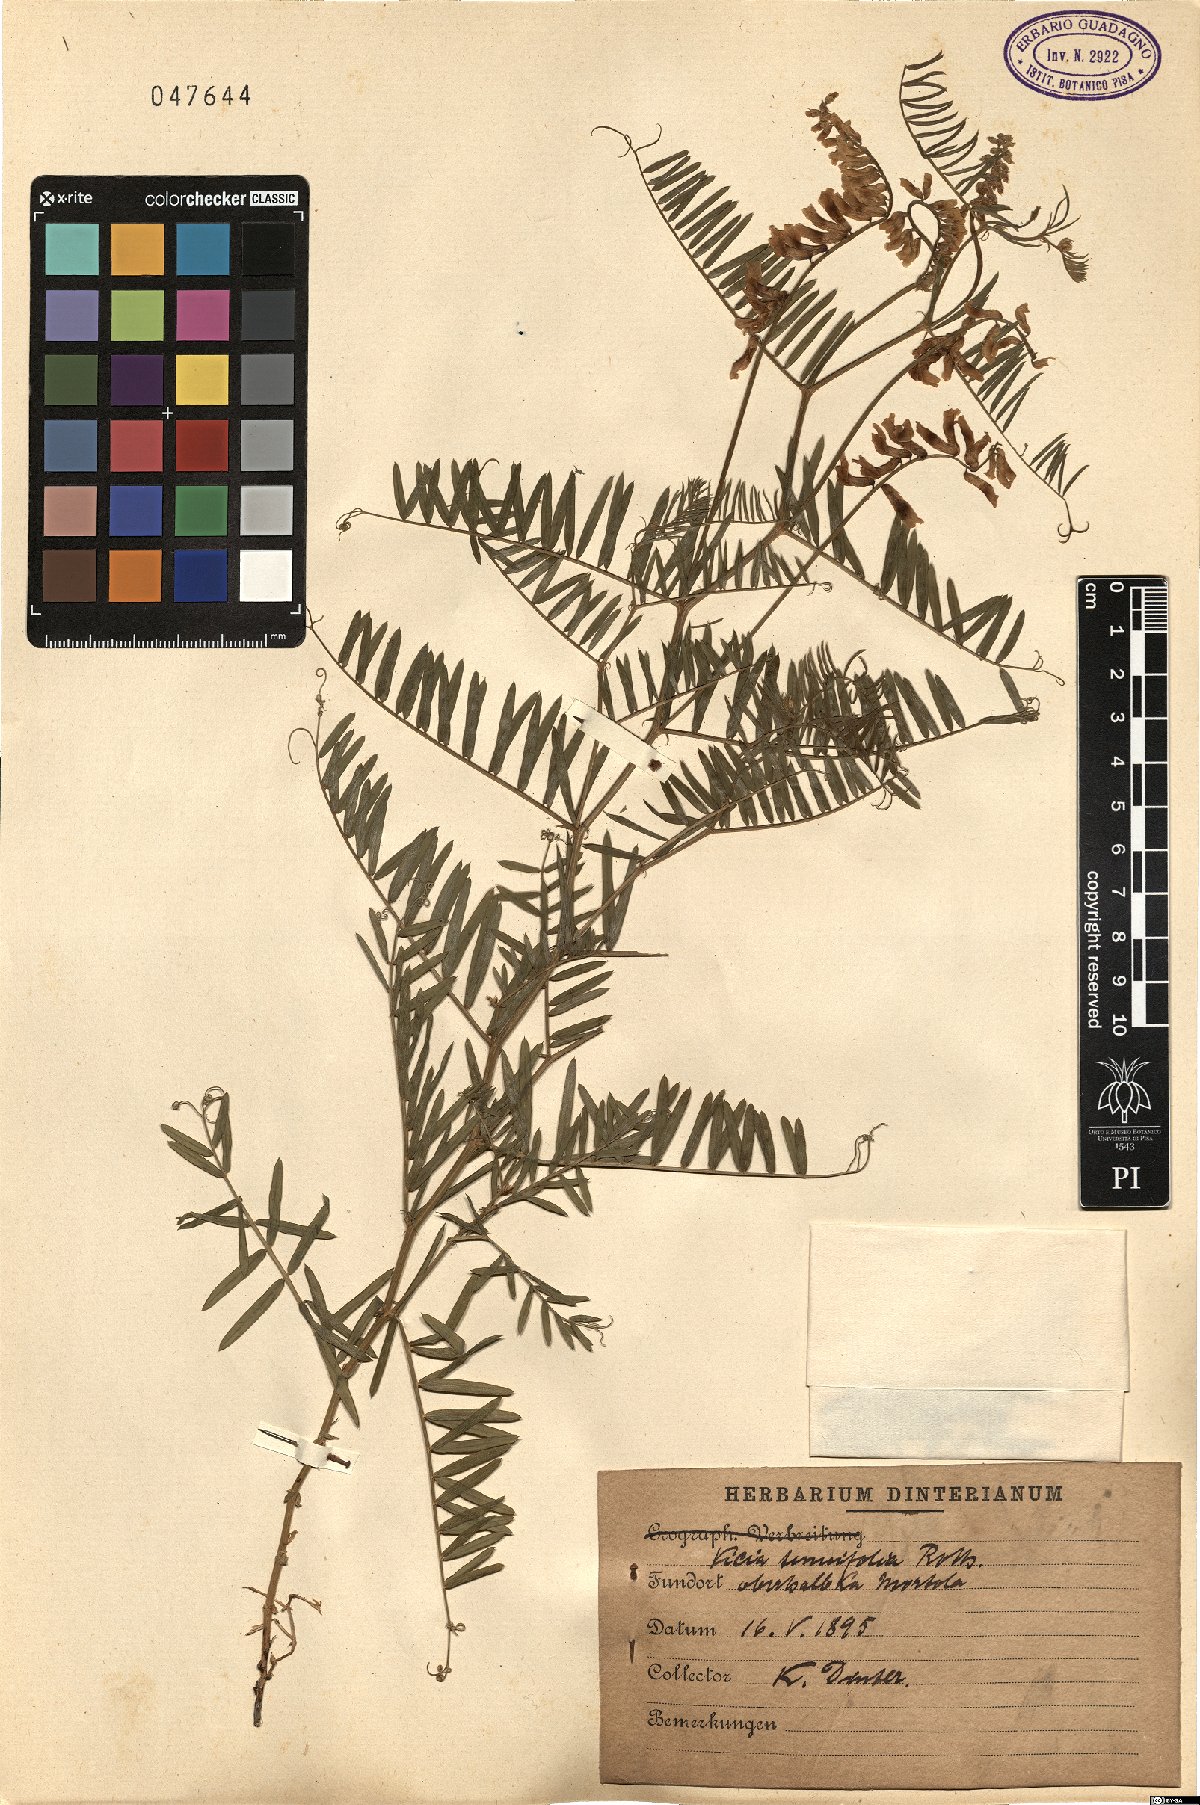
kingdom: Plantae
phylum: Tracheophyta
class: Magnoliopsida
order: Fabales
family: Fabaceae
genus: Vicia
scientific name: Vicia tenuifolia
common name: Fine-leaved vetch
